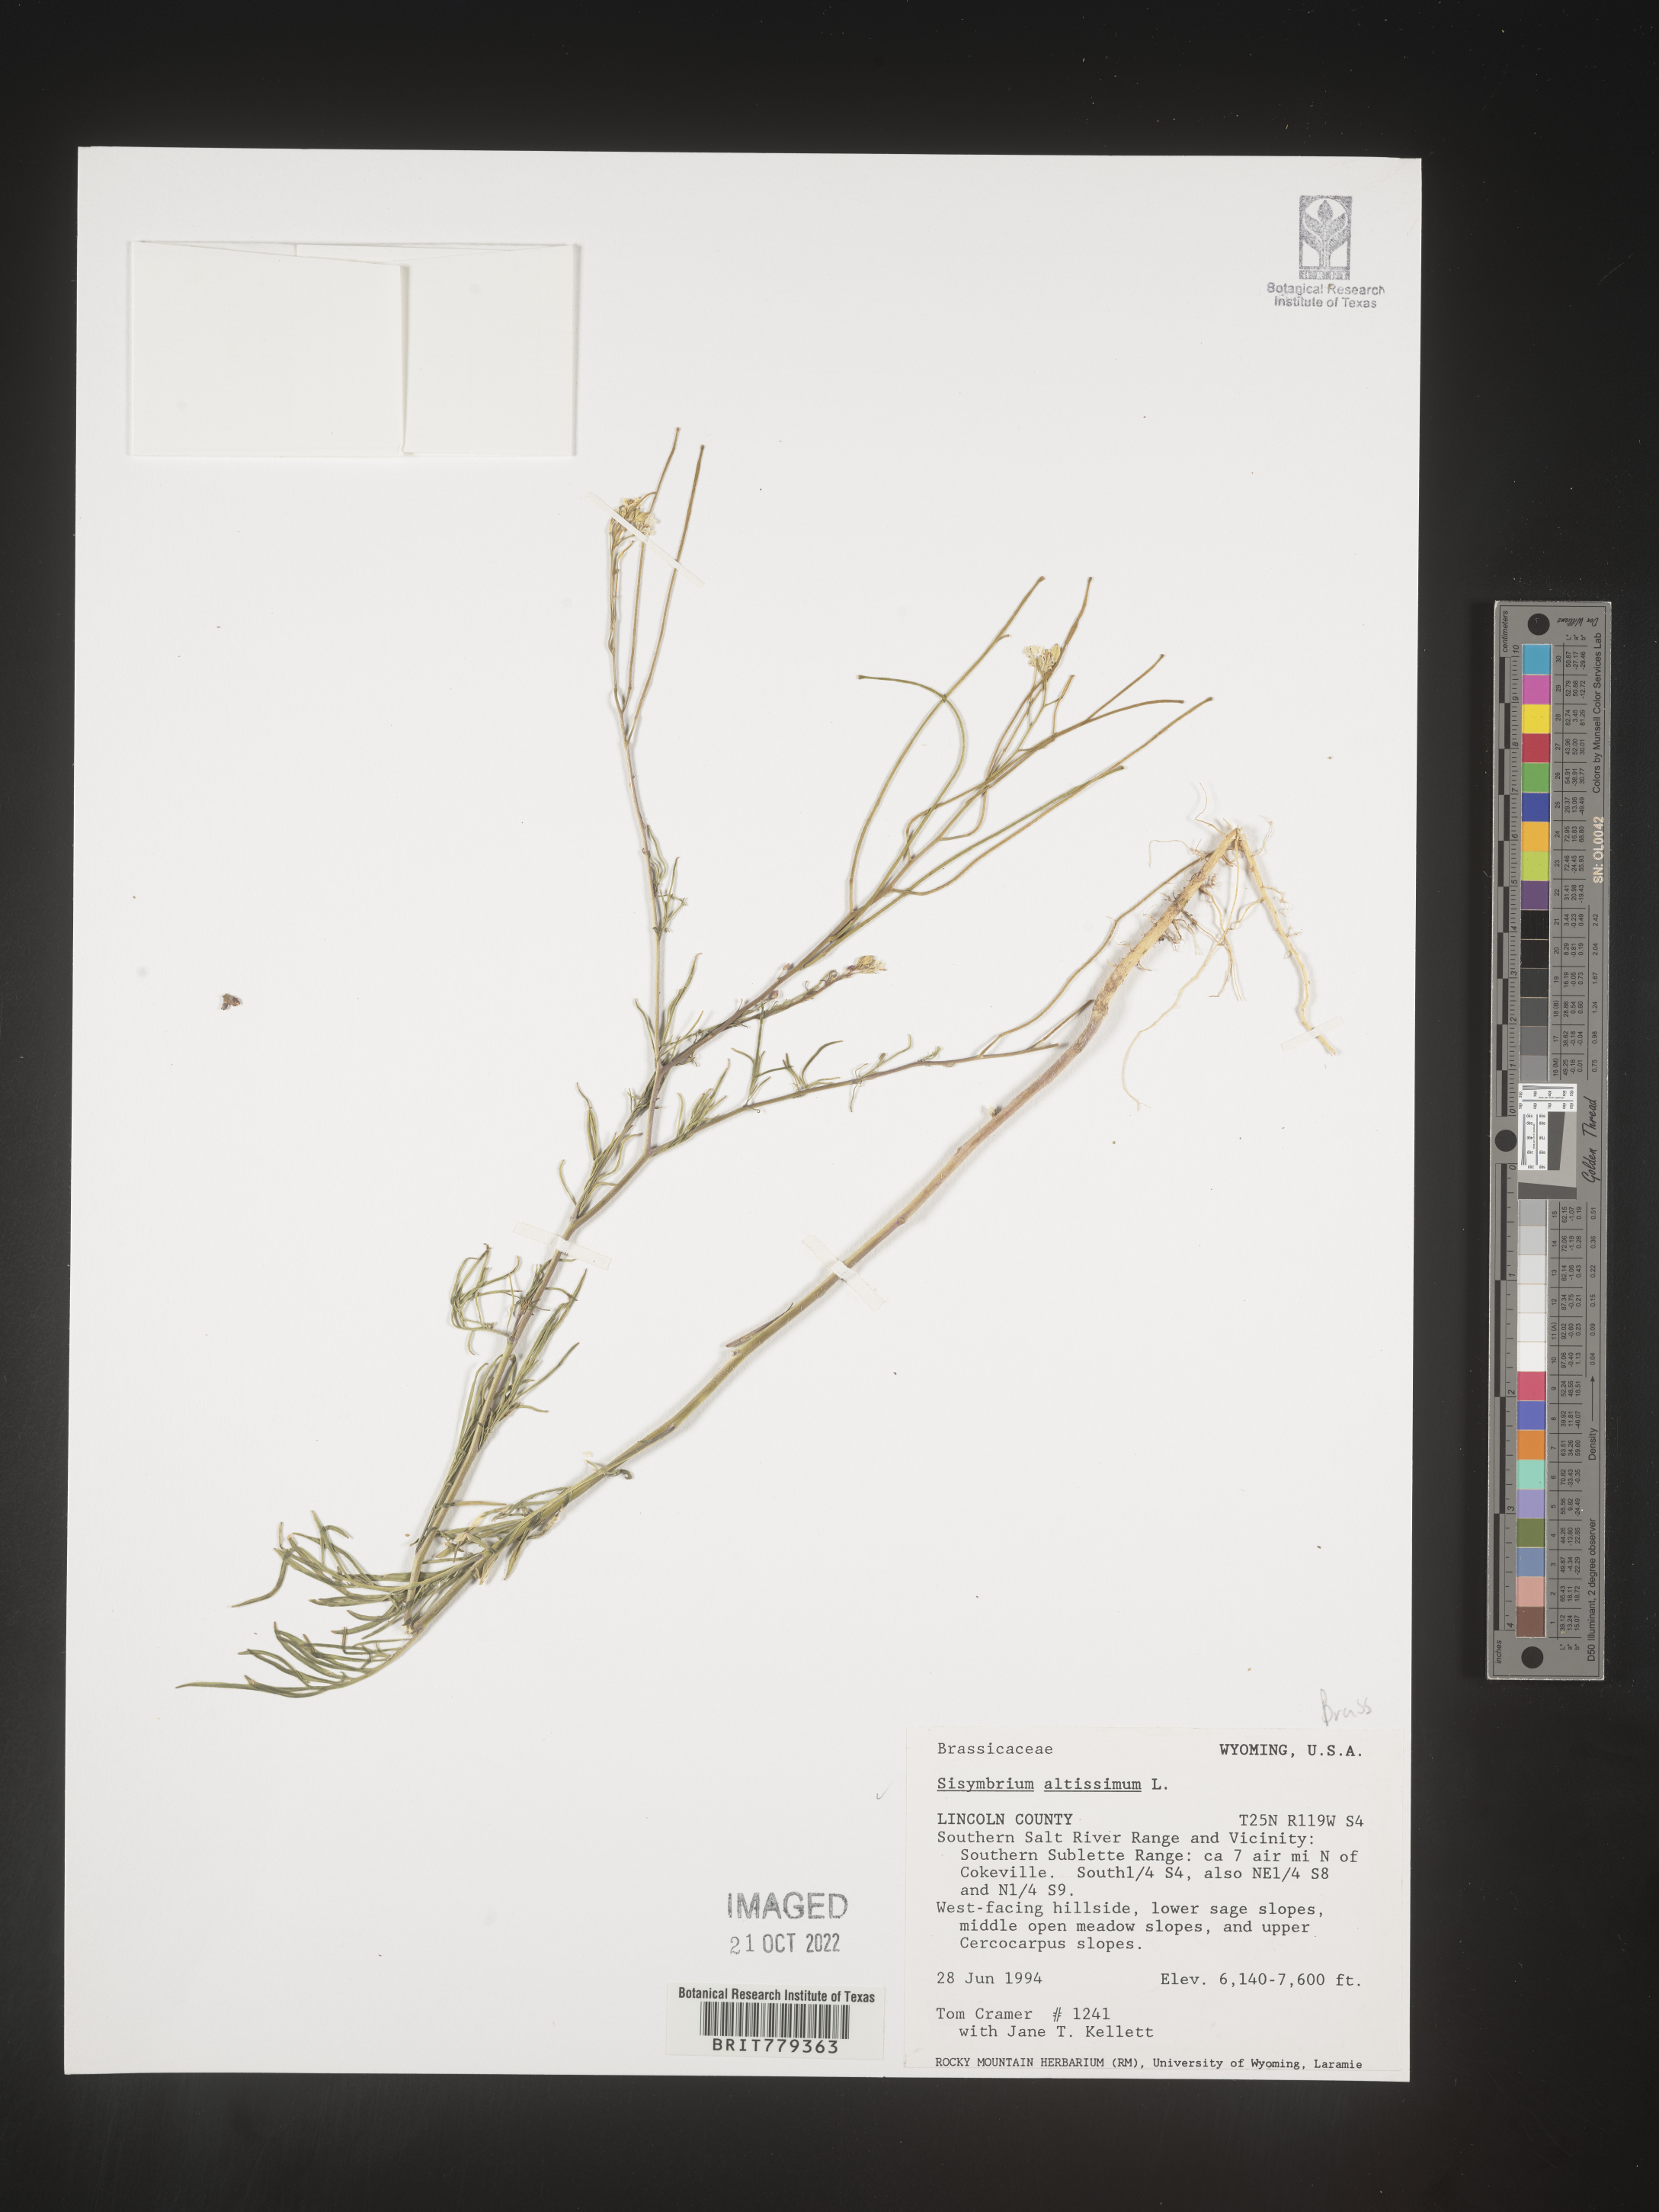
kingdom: Plantae
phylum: Tracheophyta
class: Magnoliopsida
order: Brassicales
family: Brassicaceae
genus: Sisymbrium
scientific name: Sisymbrium altissimum
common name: Tall rocket
